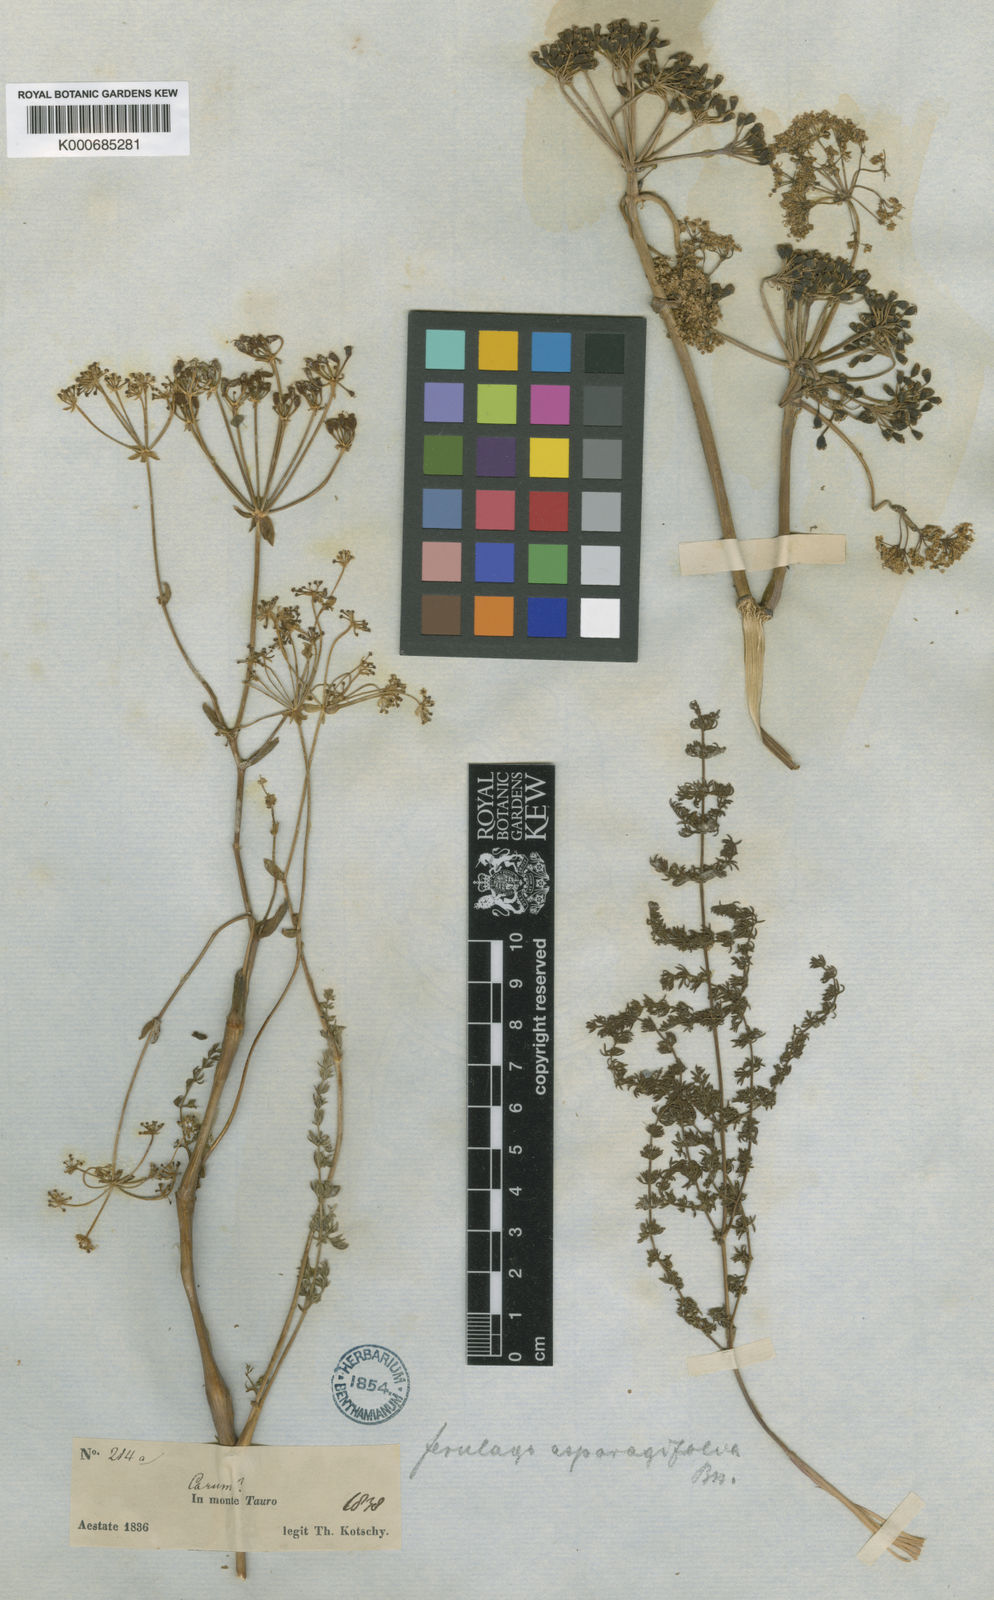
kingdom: Plantae
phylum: Tracheophyta
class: Magnoliopsida
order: Apiales
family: Apiaceae
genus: Ferulago
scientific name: Ferulago asparagifolia
